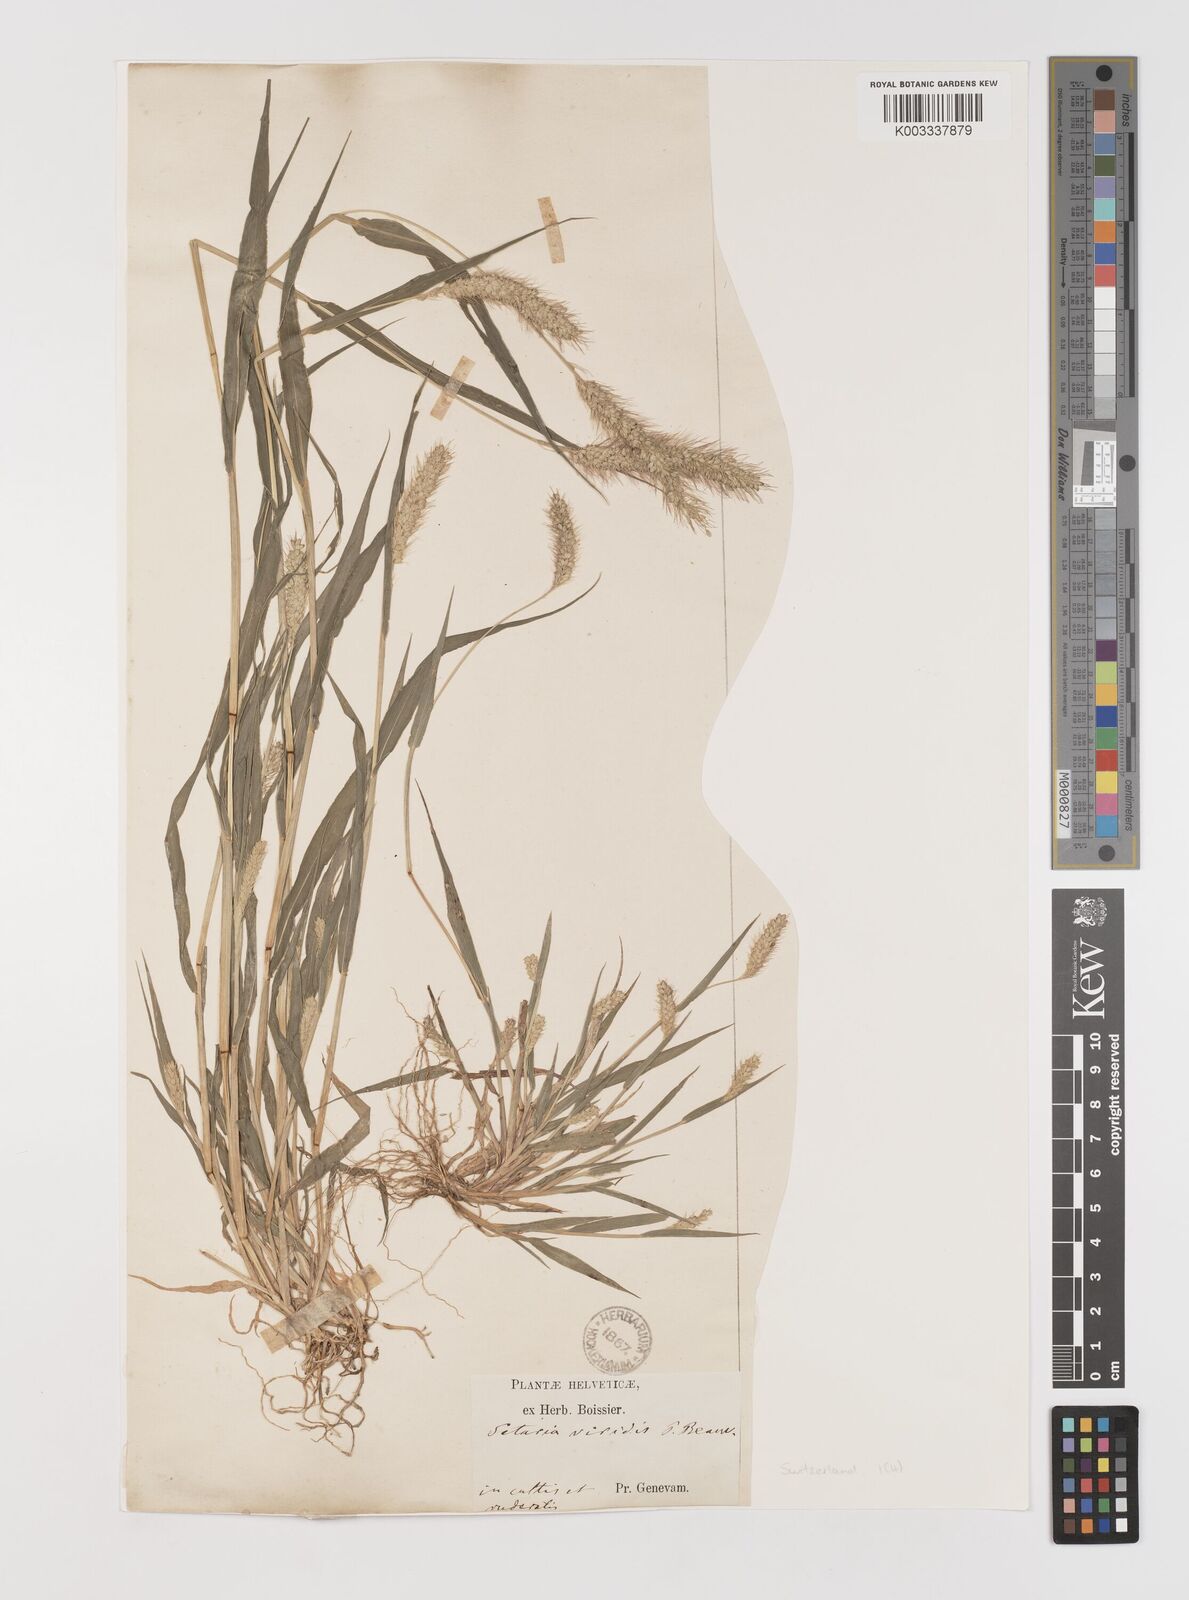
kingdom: Plantae
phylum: Tracheophyta
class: Liliopsida
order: Poales
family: Poaceae
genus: Setaria
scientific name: Setaria viridis
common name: Green bristlegrass
